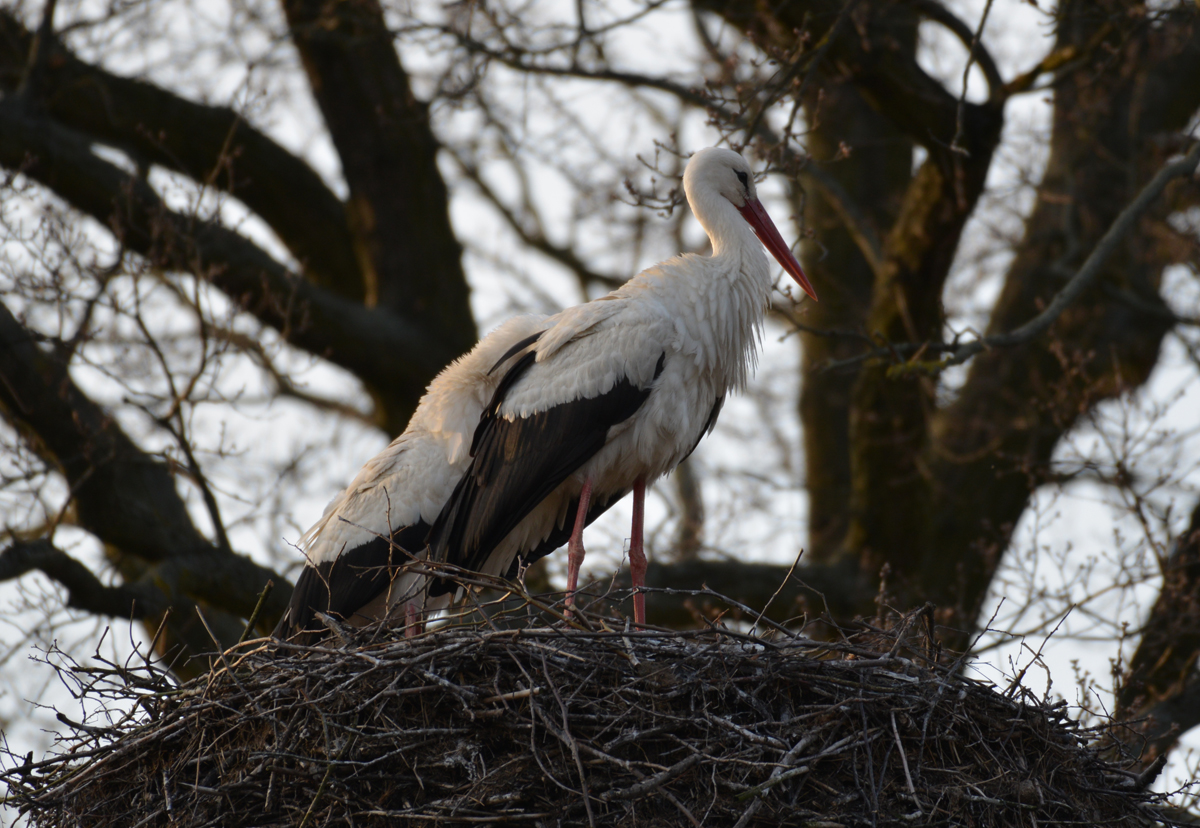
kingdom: Animalia
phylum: Chordata
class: Aves
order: Ciconiiformes
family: Ciconiidae
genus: Ciconia
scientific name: Ciconia ciconia
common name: White stork
